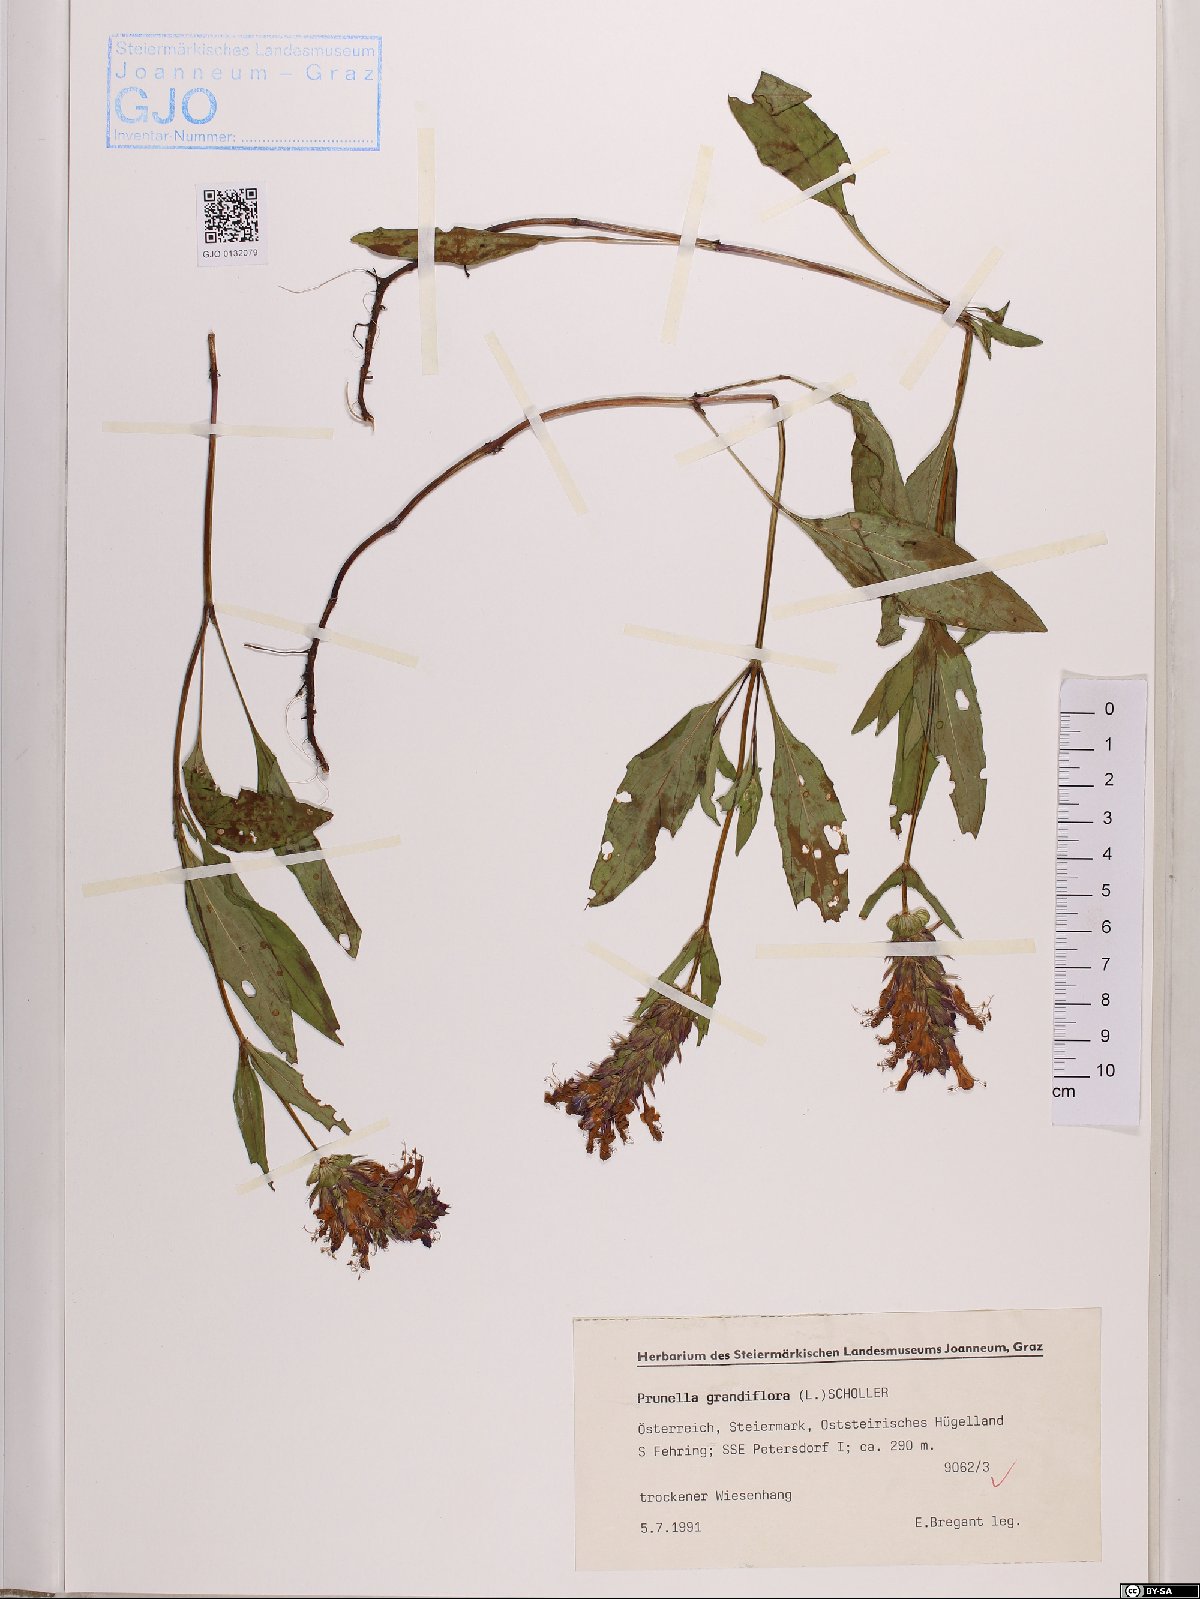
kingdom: Plantae
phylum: Tracheophyta
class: Magnoliopsida
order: Lamiales
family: Lamiaceae
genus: Prunella
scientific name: Prunella grandiflora
